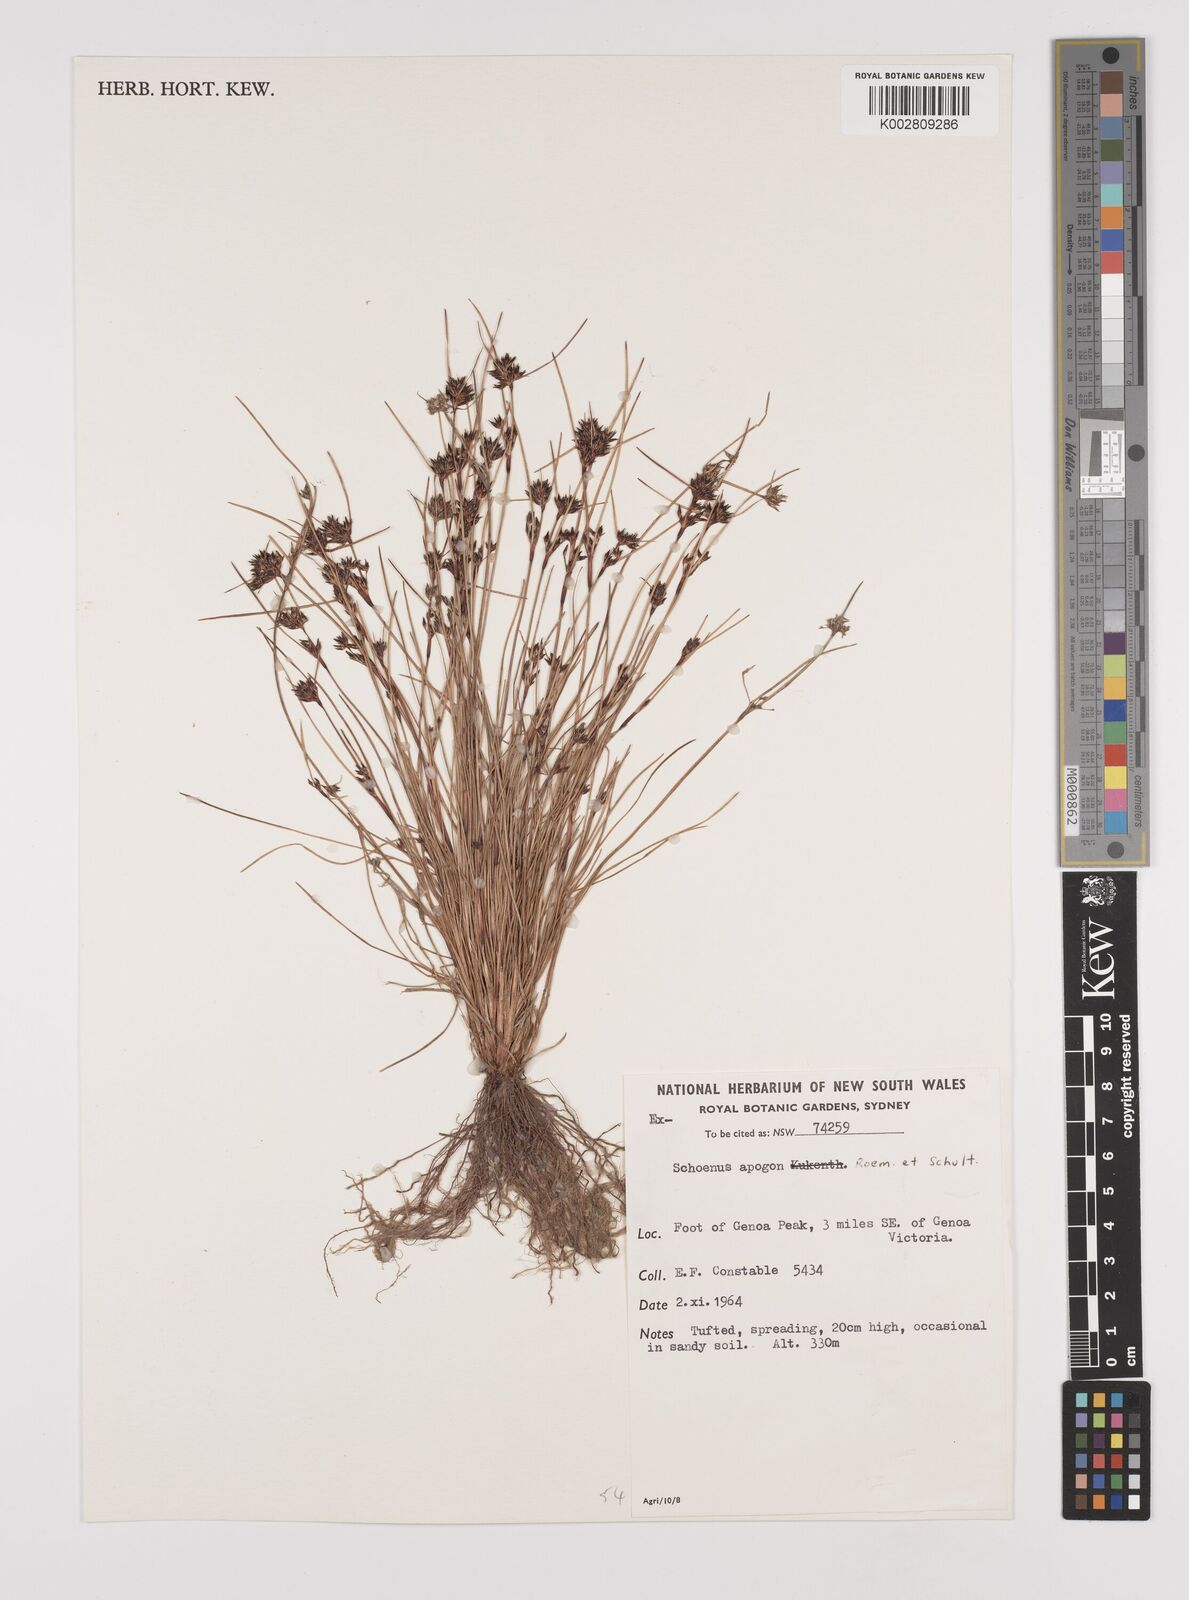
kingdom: Plantae
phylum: Tracheophyta
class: Liliopsida
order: Poales
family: Cyperaceae
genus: Schoenus
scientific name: Schoenus apogon
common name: Smooth bogrush
